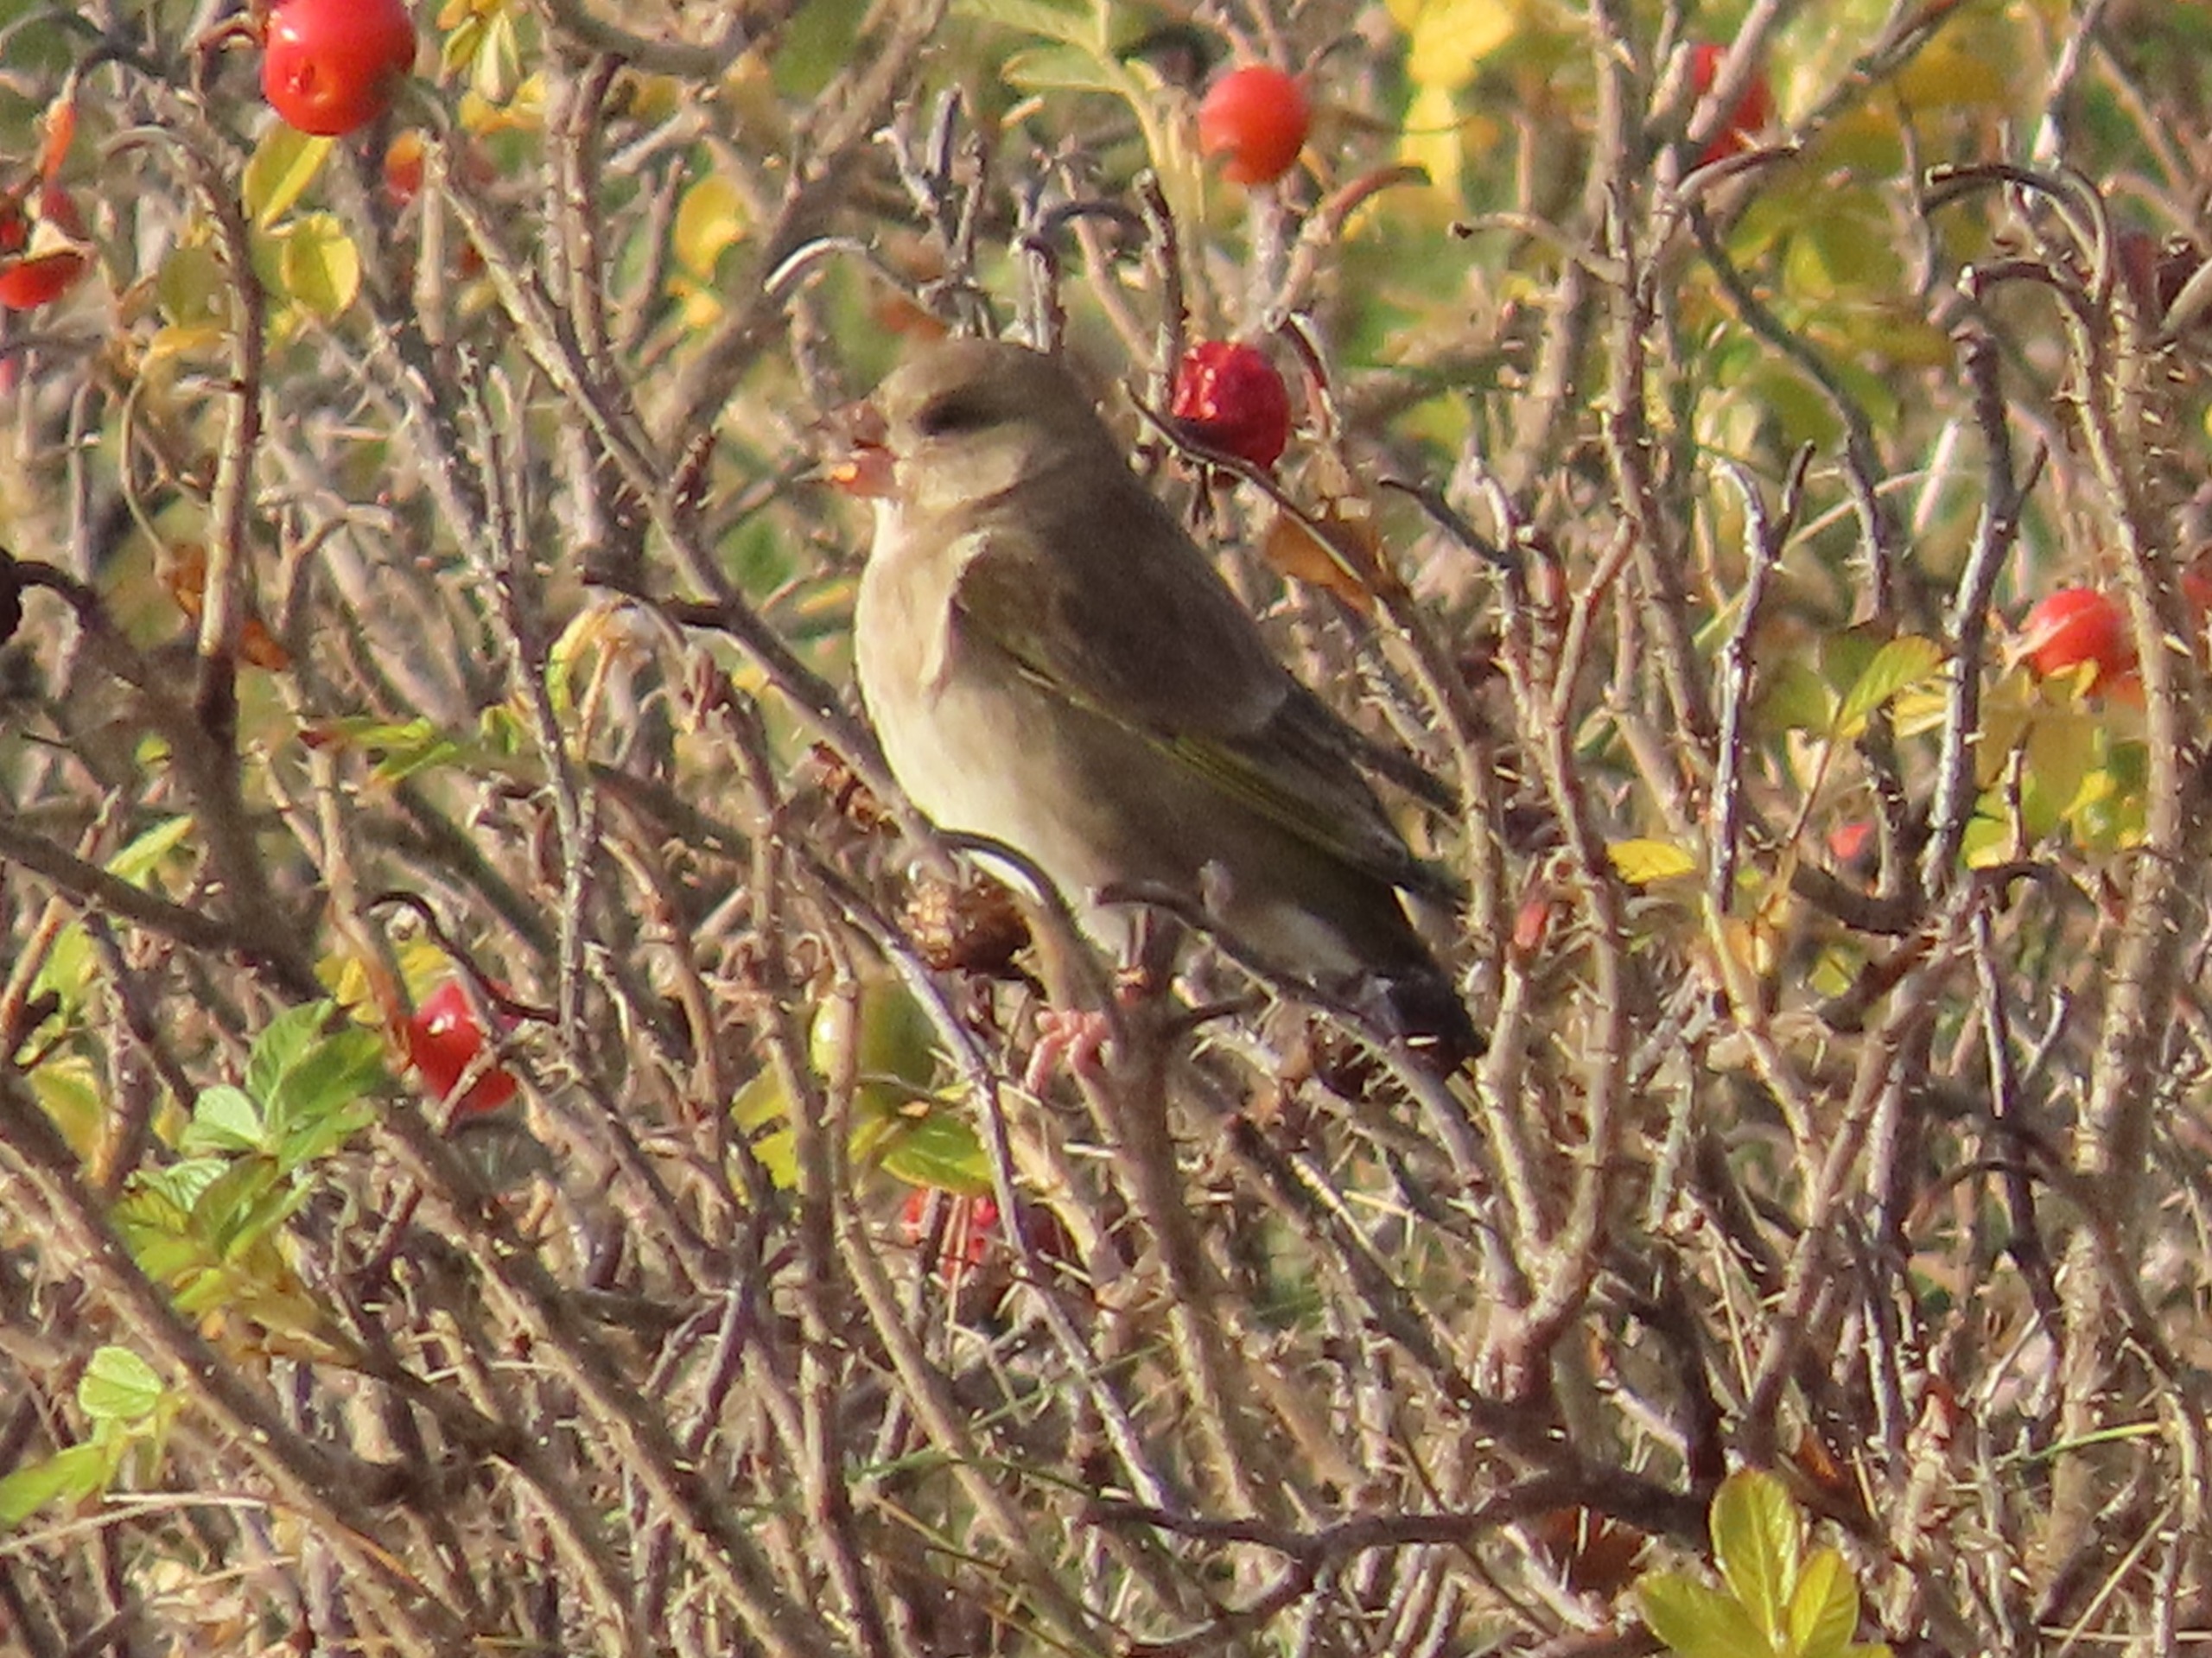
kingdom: Plantae
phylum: Tracheophyta
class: Liliopsida
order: Poales
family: Poaceae
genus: Chloris
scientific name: Chloris chloris
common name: Grønirisk
